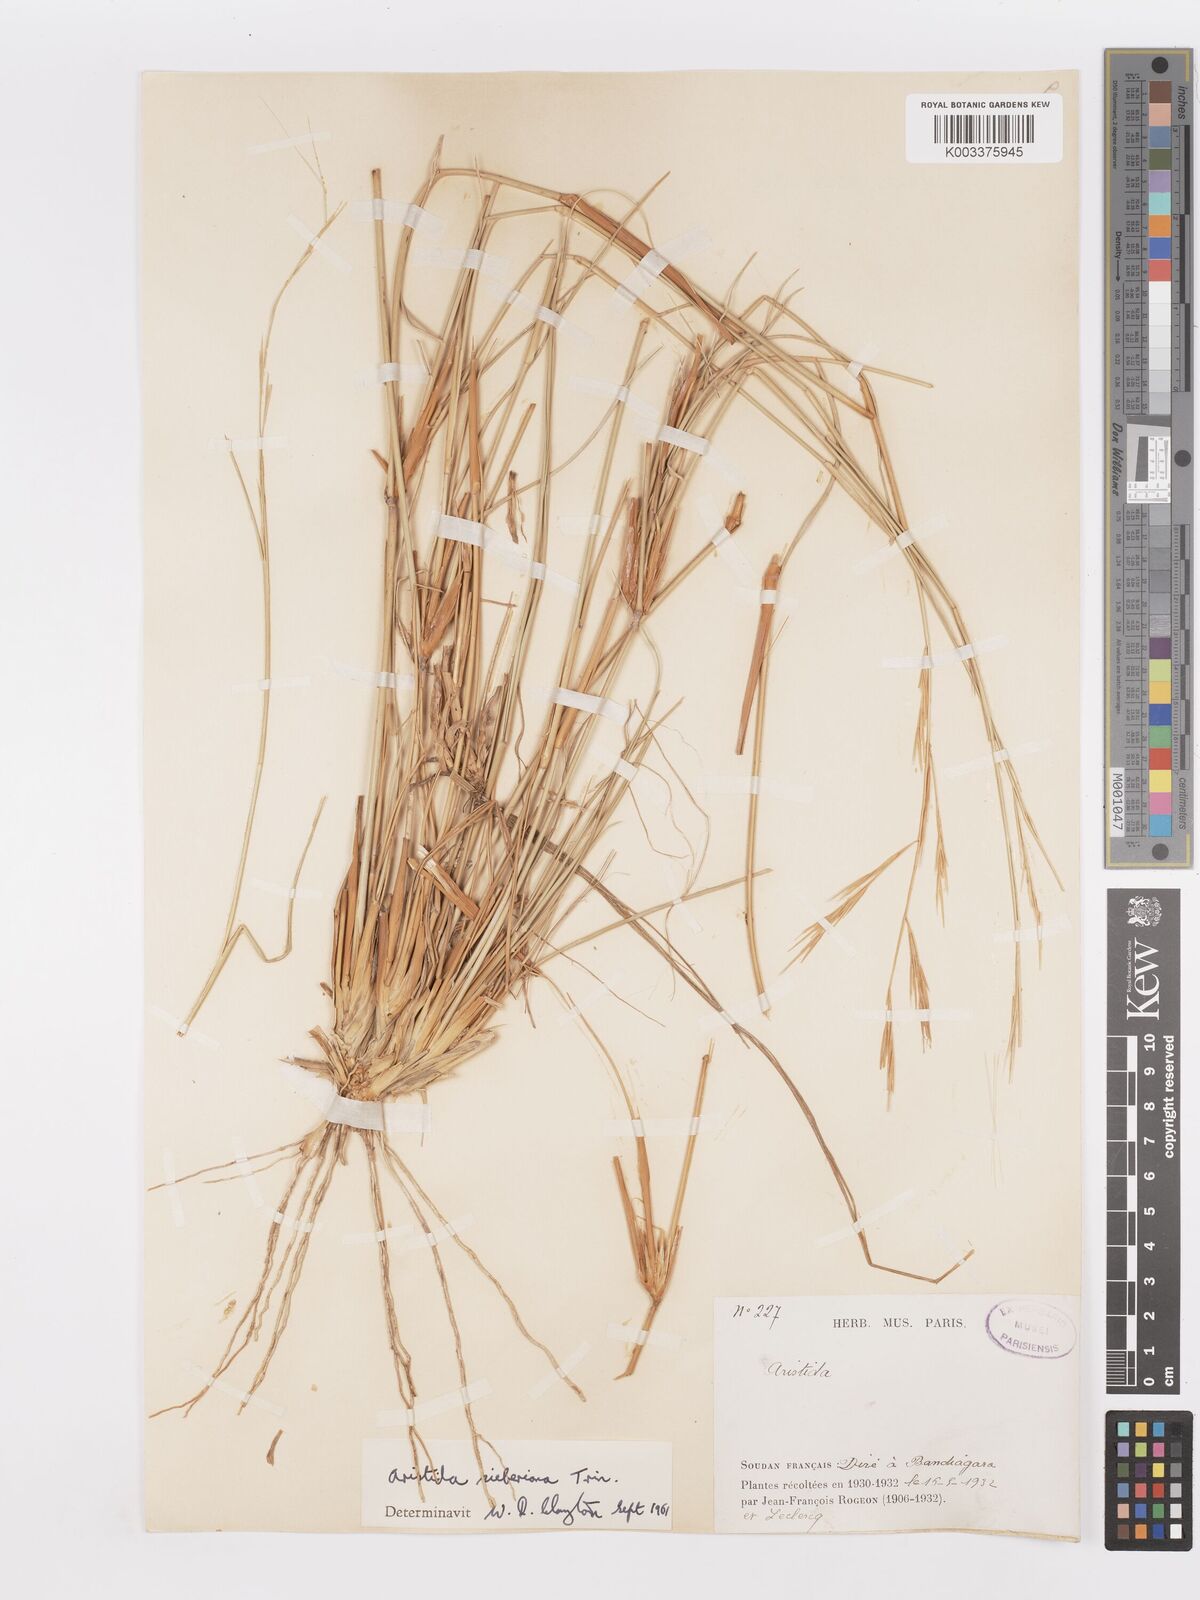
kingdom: Plantae
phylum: Tracheophyta
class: Liliopsida
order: Poales
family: Poaceae
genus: Aristida
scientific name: Aristida sieberiana
